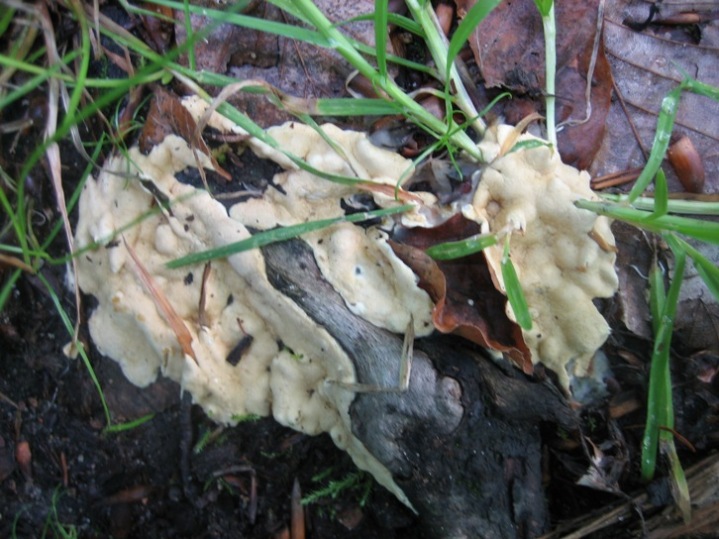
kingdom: Fungi
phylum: Ascomycota
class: Sordariomycetes
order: Hypocreales
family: Hypocreaceae
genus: Trichoderma
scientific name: Trichoderma citrinum
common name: udbredt kødkerne
